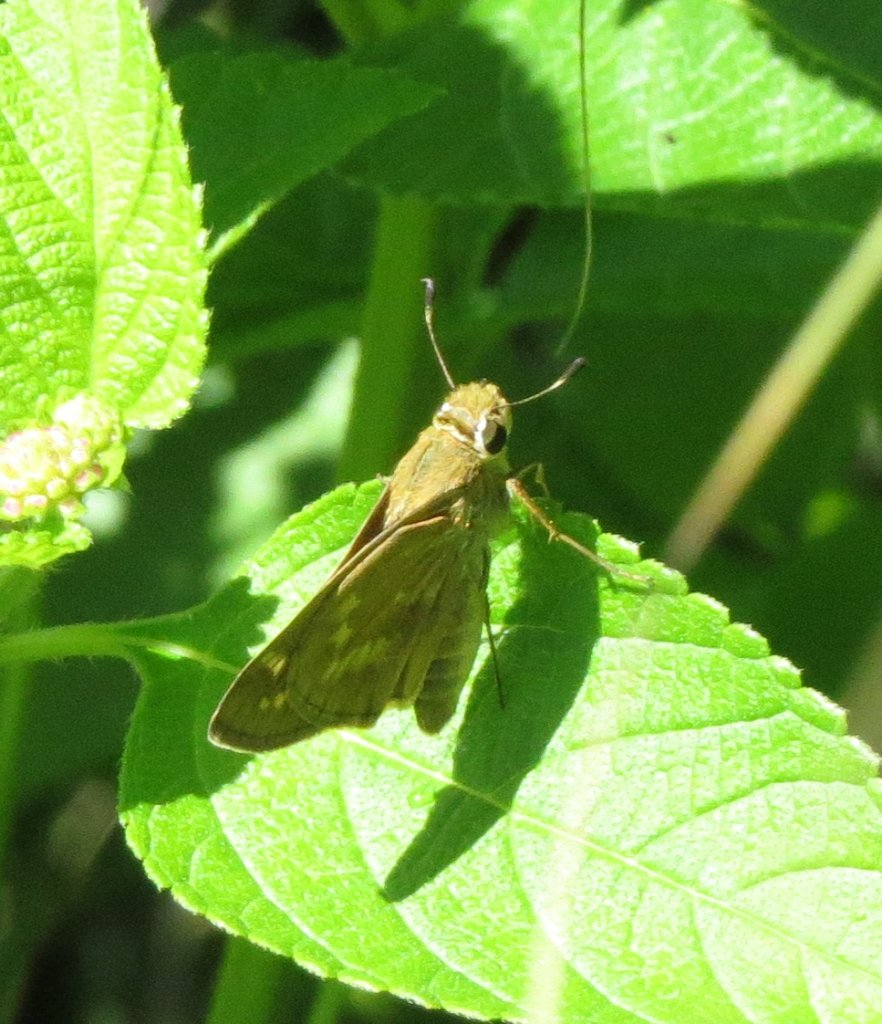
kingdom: Animalia
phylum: Arthropoda
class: Insecta
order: Lepidoptera
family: Hesperiidae
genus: Atalopedes
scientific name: Atalopedes campestris
